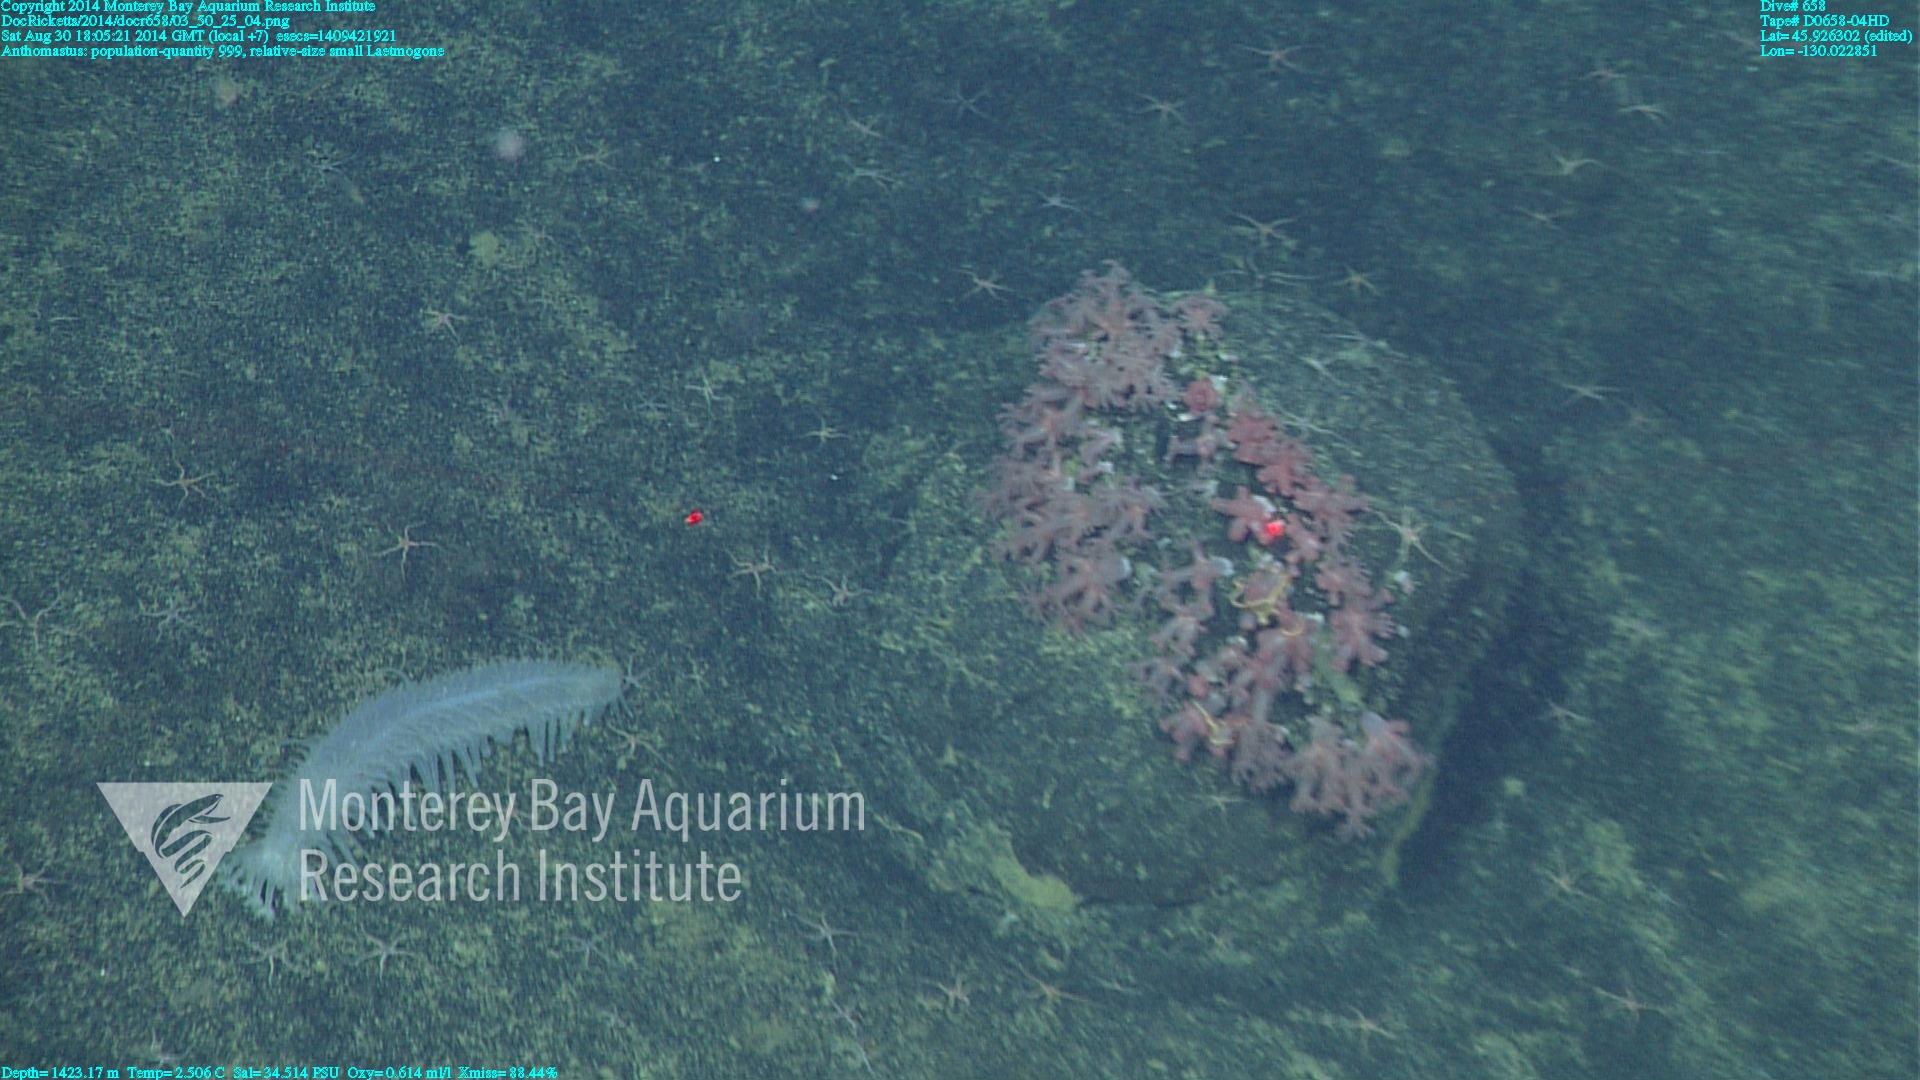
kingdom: Animalia
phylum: Cnidaria
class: Anthozoa
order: Scleralcyonacea
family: Coralliidae
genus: Heteropolypus
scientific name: Heteropolypus
